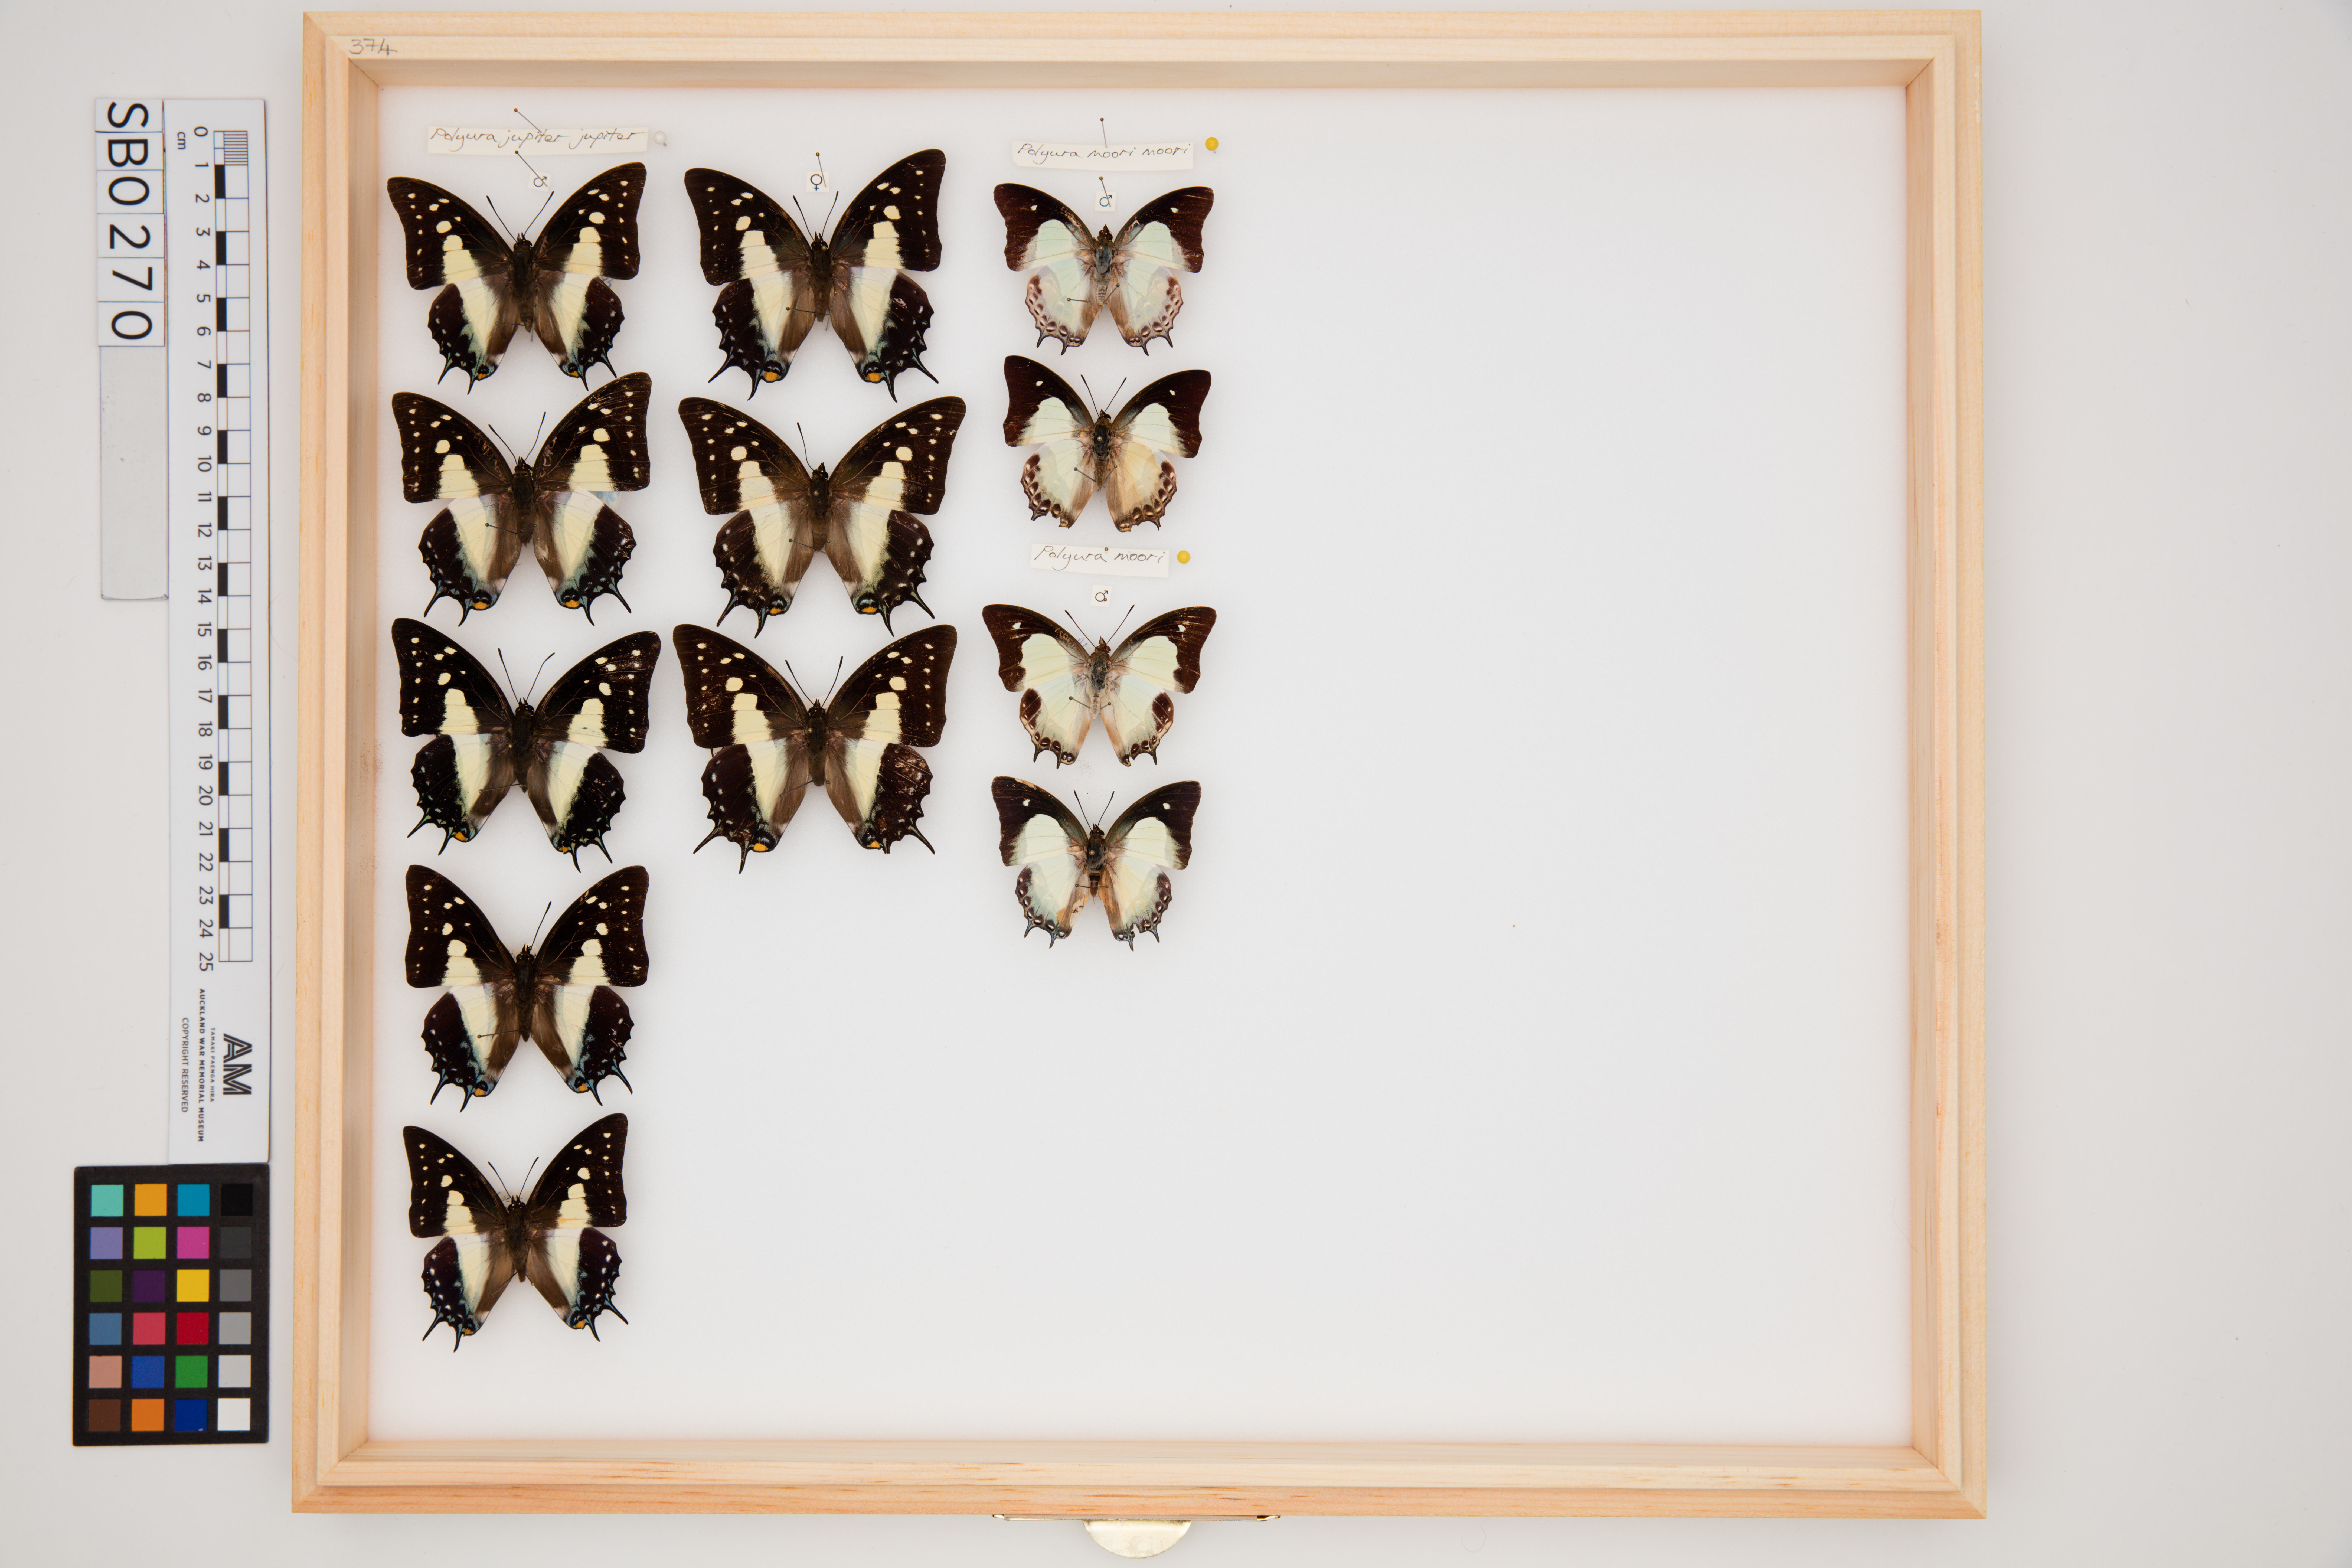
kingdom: Animalia
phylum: Arthropoda
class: Insecta
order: Lepidoptera
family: Nymphalidae
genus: Polyura
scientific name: Polyura jupiter
